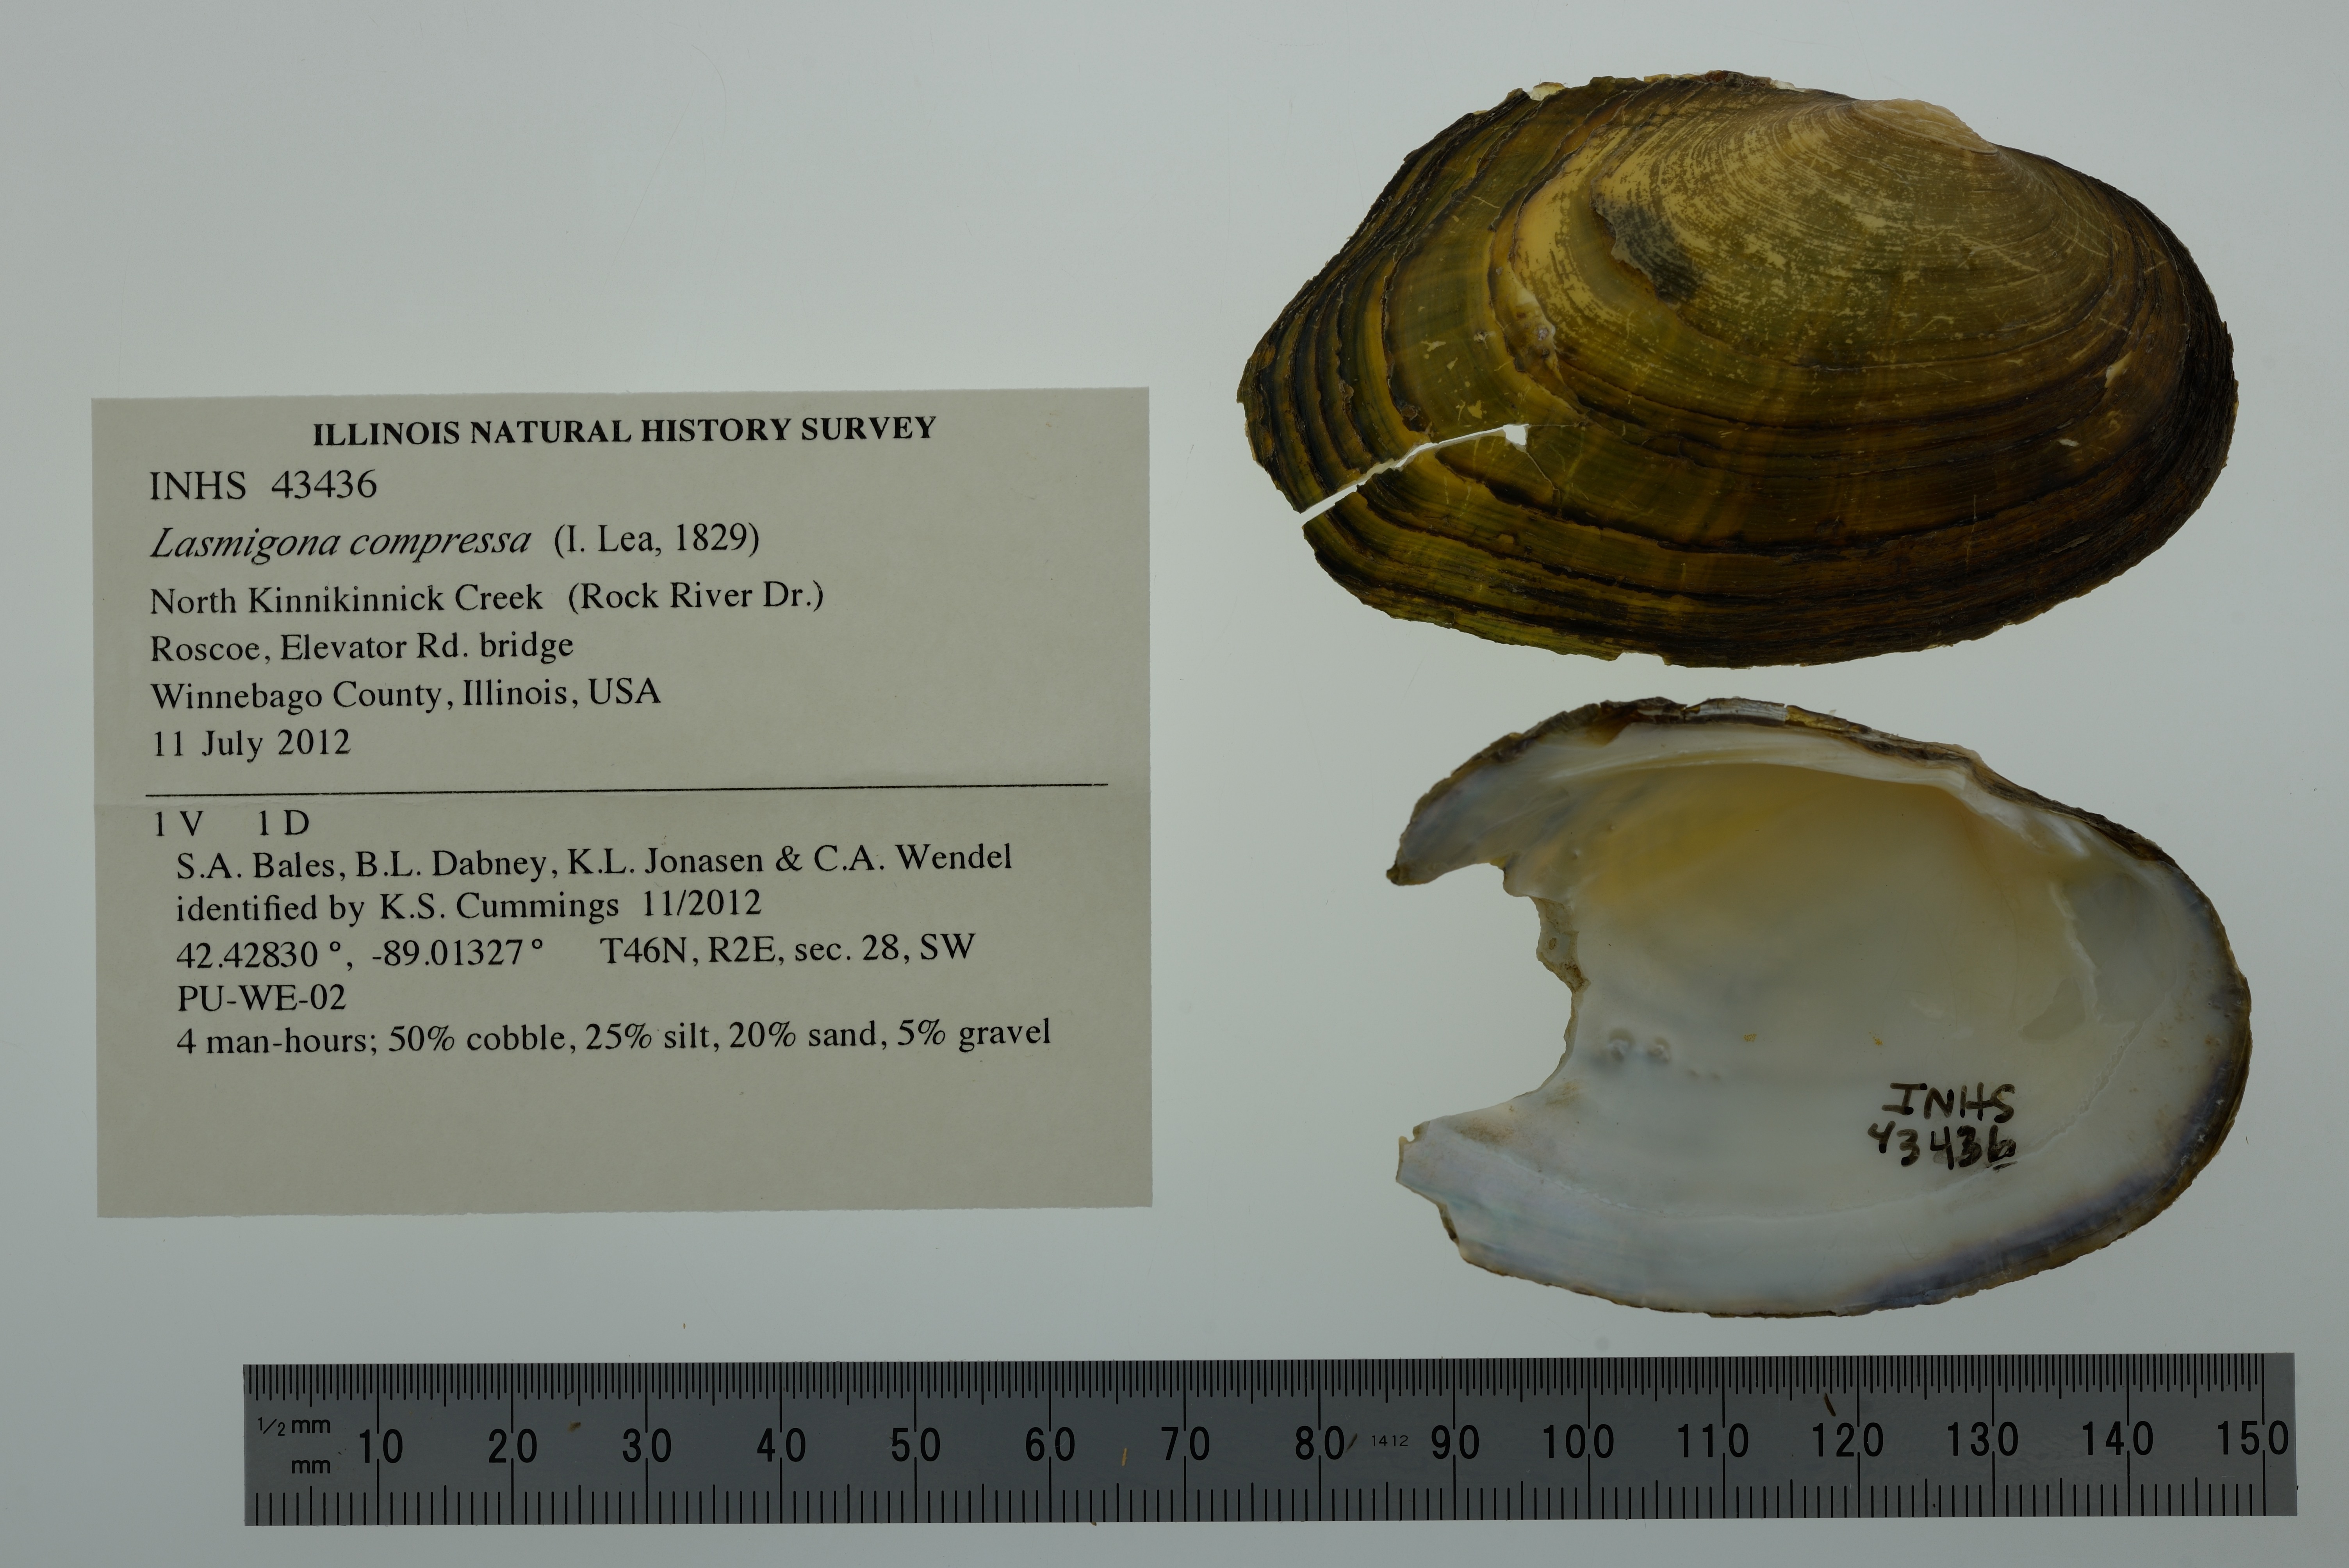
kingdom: Animalia
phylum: Mollusca
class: Bivalvia
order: Unionida
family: Unionidae
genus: Lasmigona
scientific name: Lasmigona compressa
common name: Creek heelsplitter
